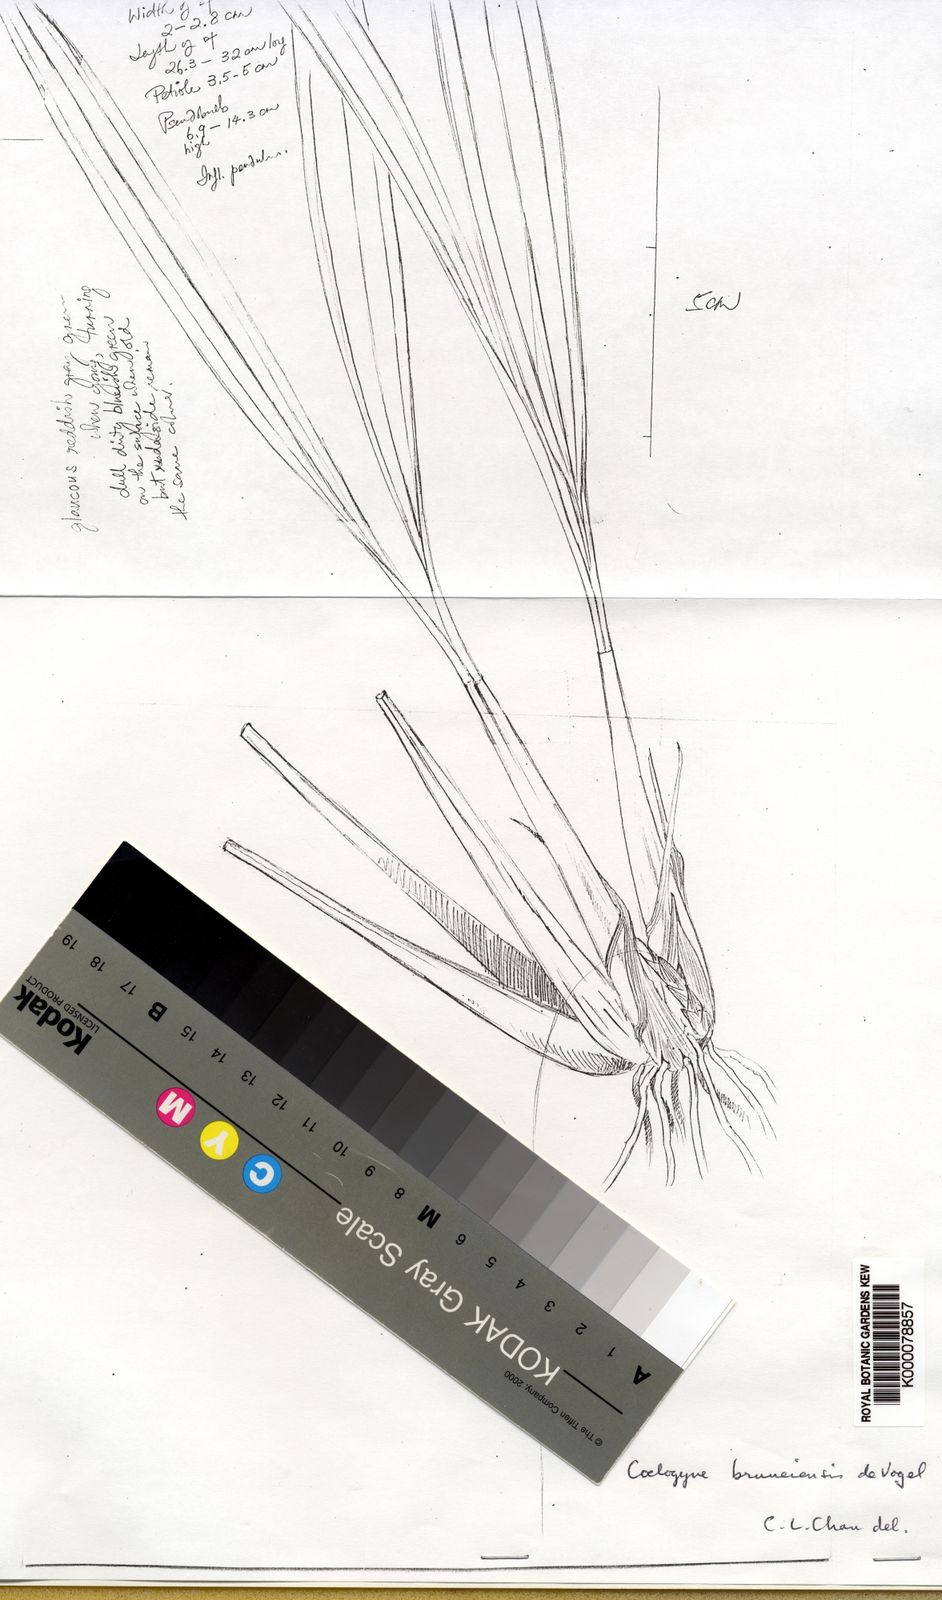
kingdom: Plantae
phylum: Tracheophyta
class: Liliopsida
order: Asparagales
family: Orchidaceae
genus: Coelogyne
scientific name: Coelogyne bruneiensis
